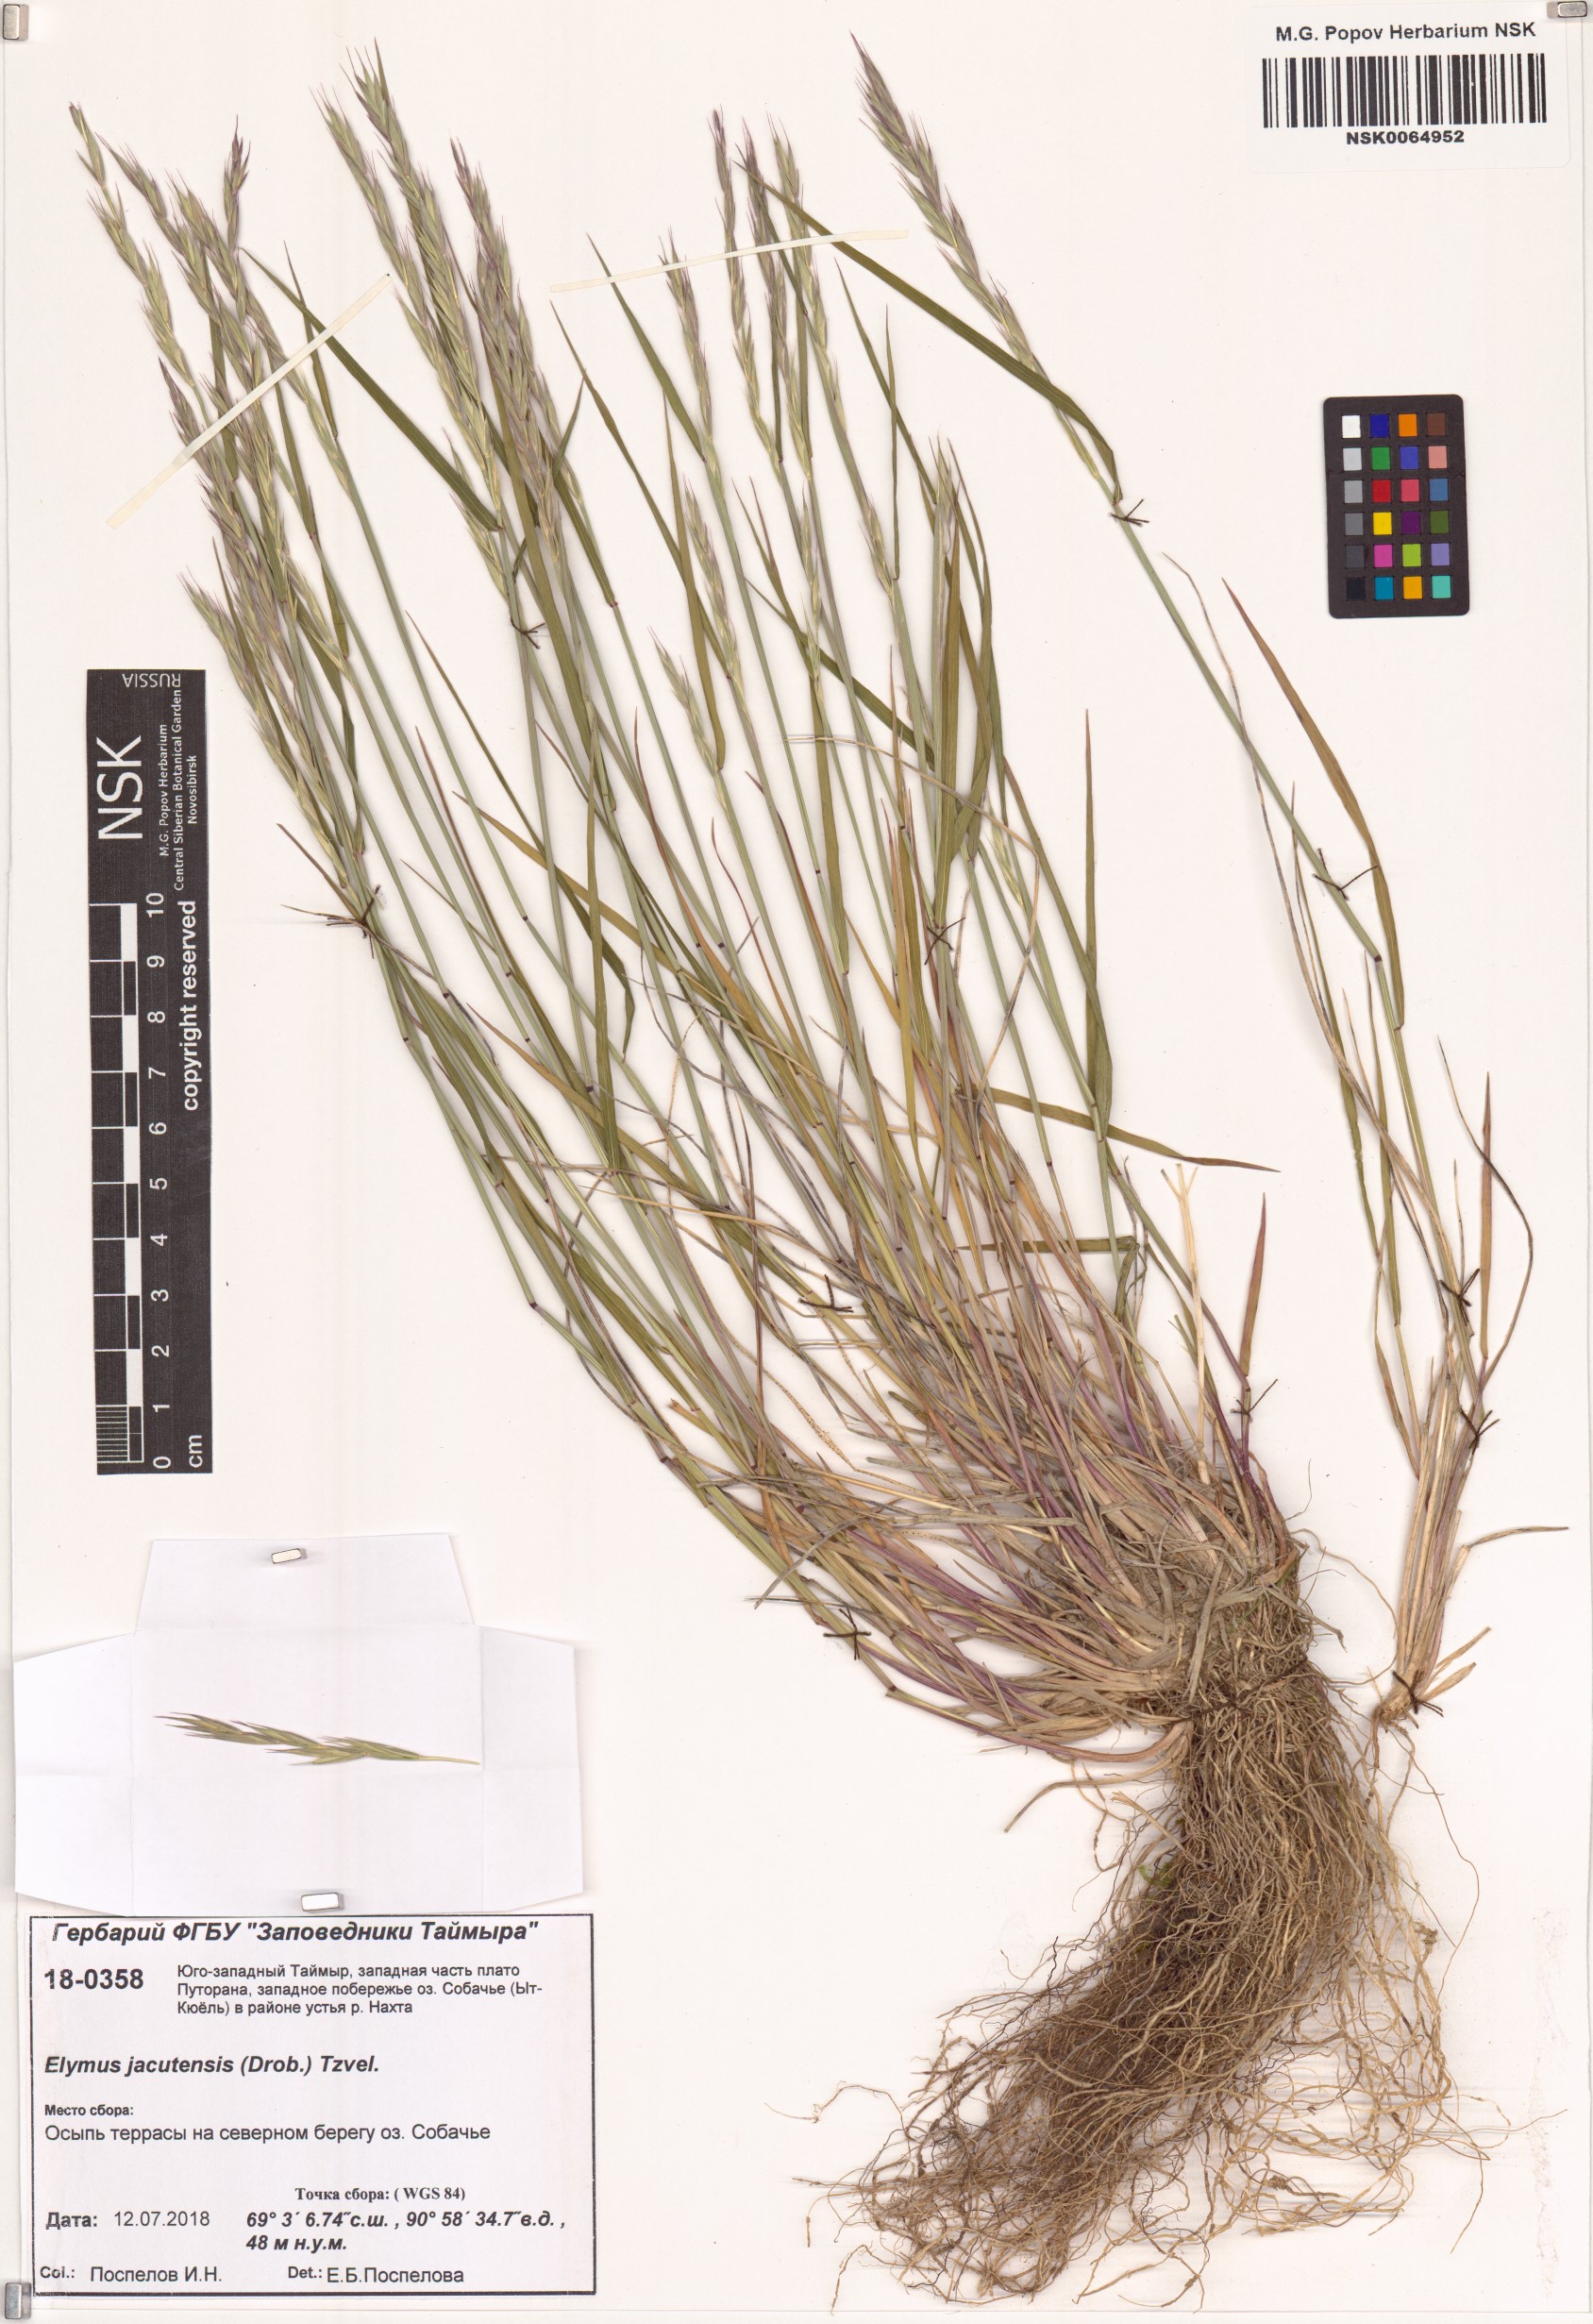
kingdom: Plantae
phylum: Tracheophyta
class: Liliopsida
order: Poales
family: Poaceae
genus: Elymus
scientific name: Elymus jacutensis
